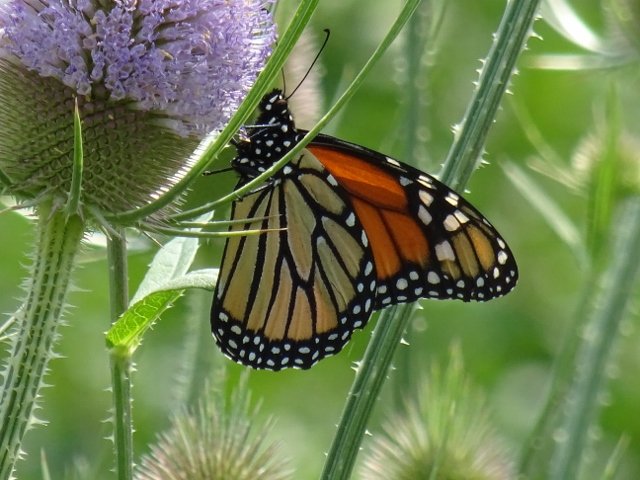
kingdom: Animalia
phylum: Arthropoda
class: Insecta
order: Lepidoptera
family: Nymphalidae
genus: Danaus
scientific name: Danaus plexippus
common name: Monarch
